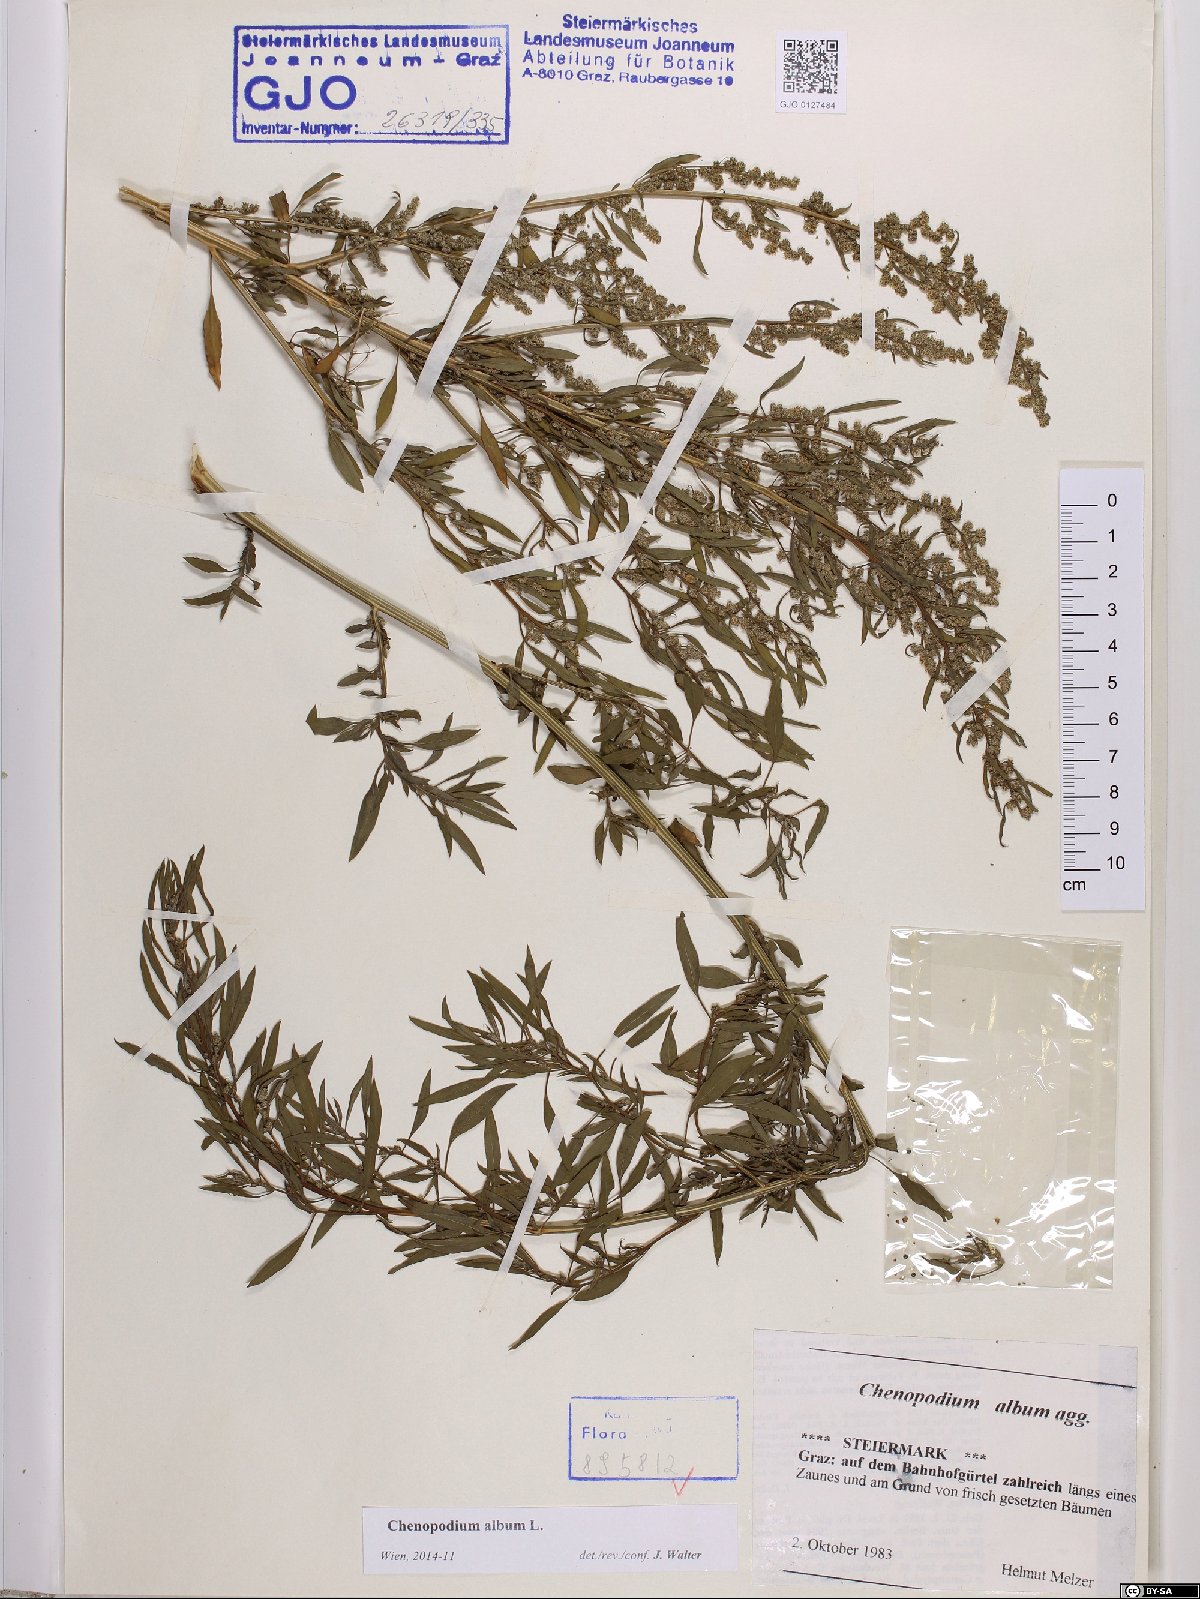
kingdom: Plantae
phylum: Tracheophyta
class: Magnoliopsida
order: Caryophyllales
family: Amaranthaceae
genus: Chenopodium
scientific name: Chenopodium album
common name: Fat-hen
